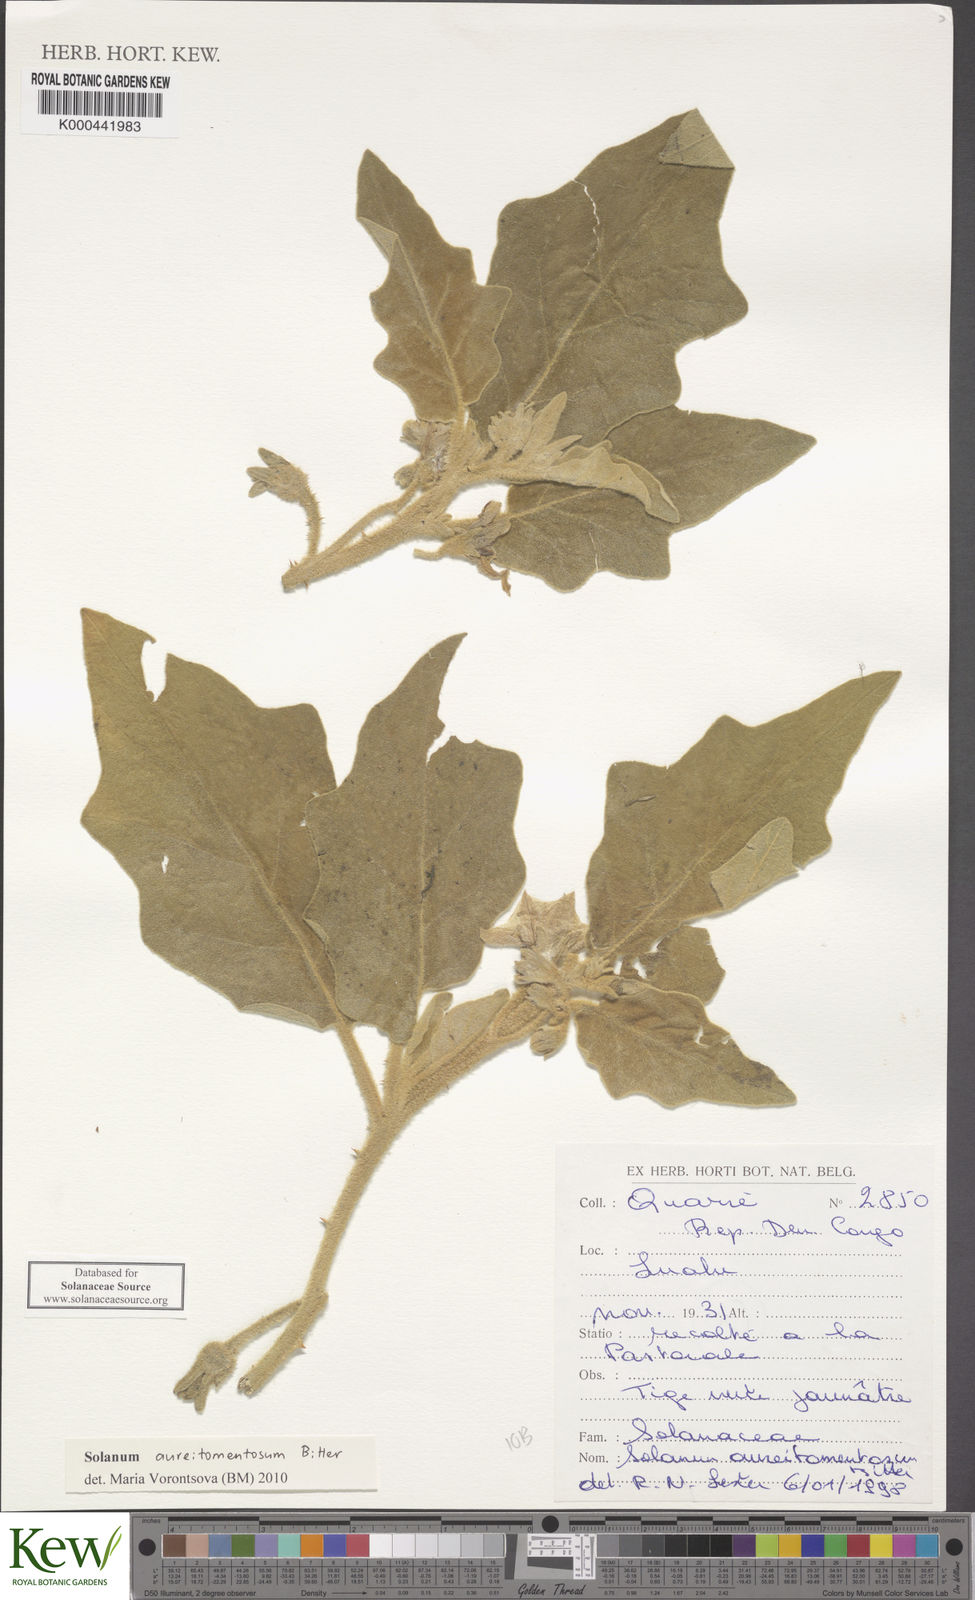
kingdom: Plantae
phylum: Tracheophyta
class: Magnoliopsida
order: Solanales
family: Solanaceae
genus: Solanum
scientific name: Solanum aureitomentosum
